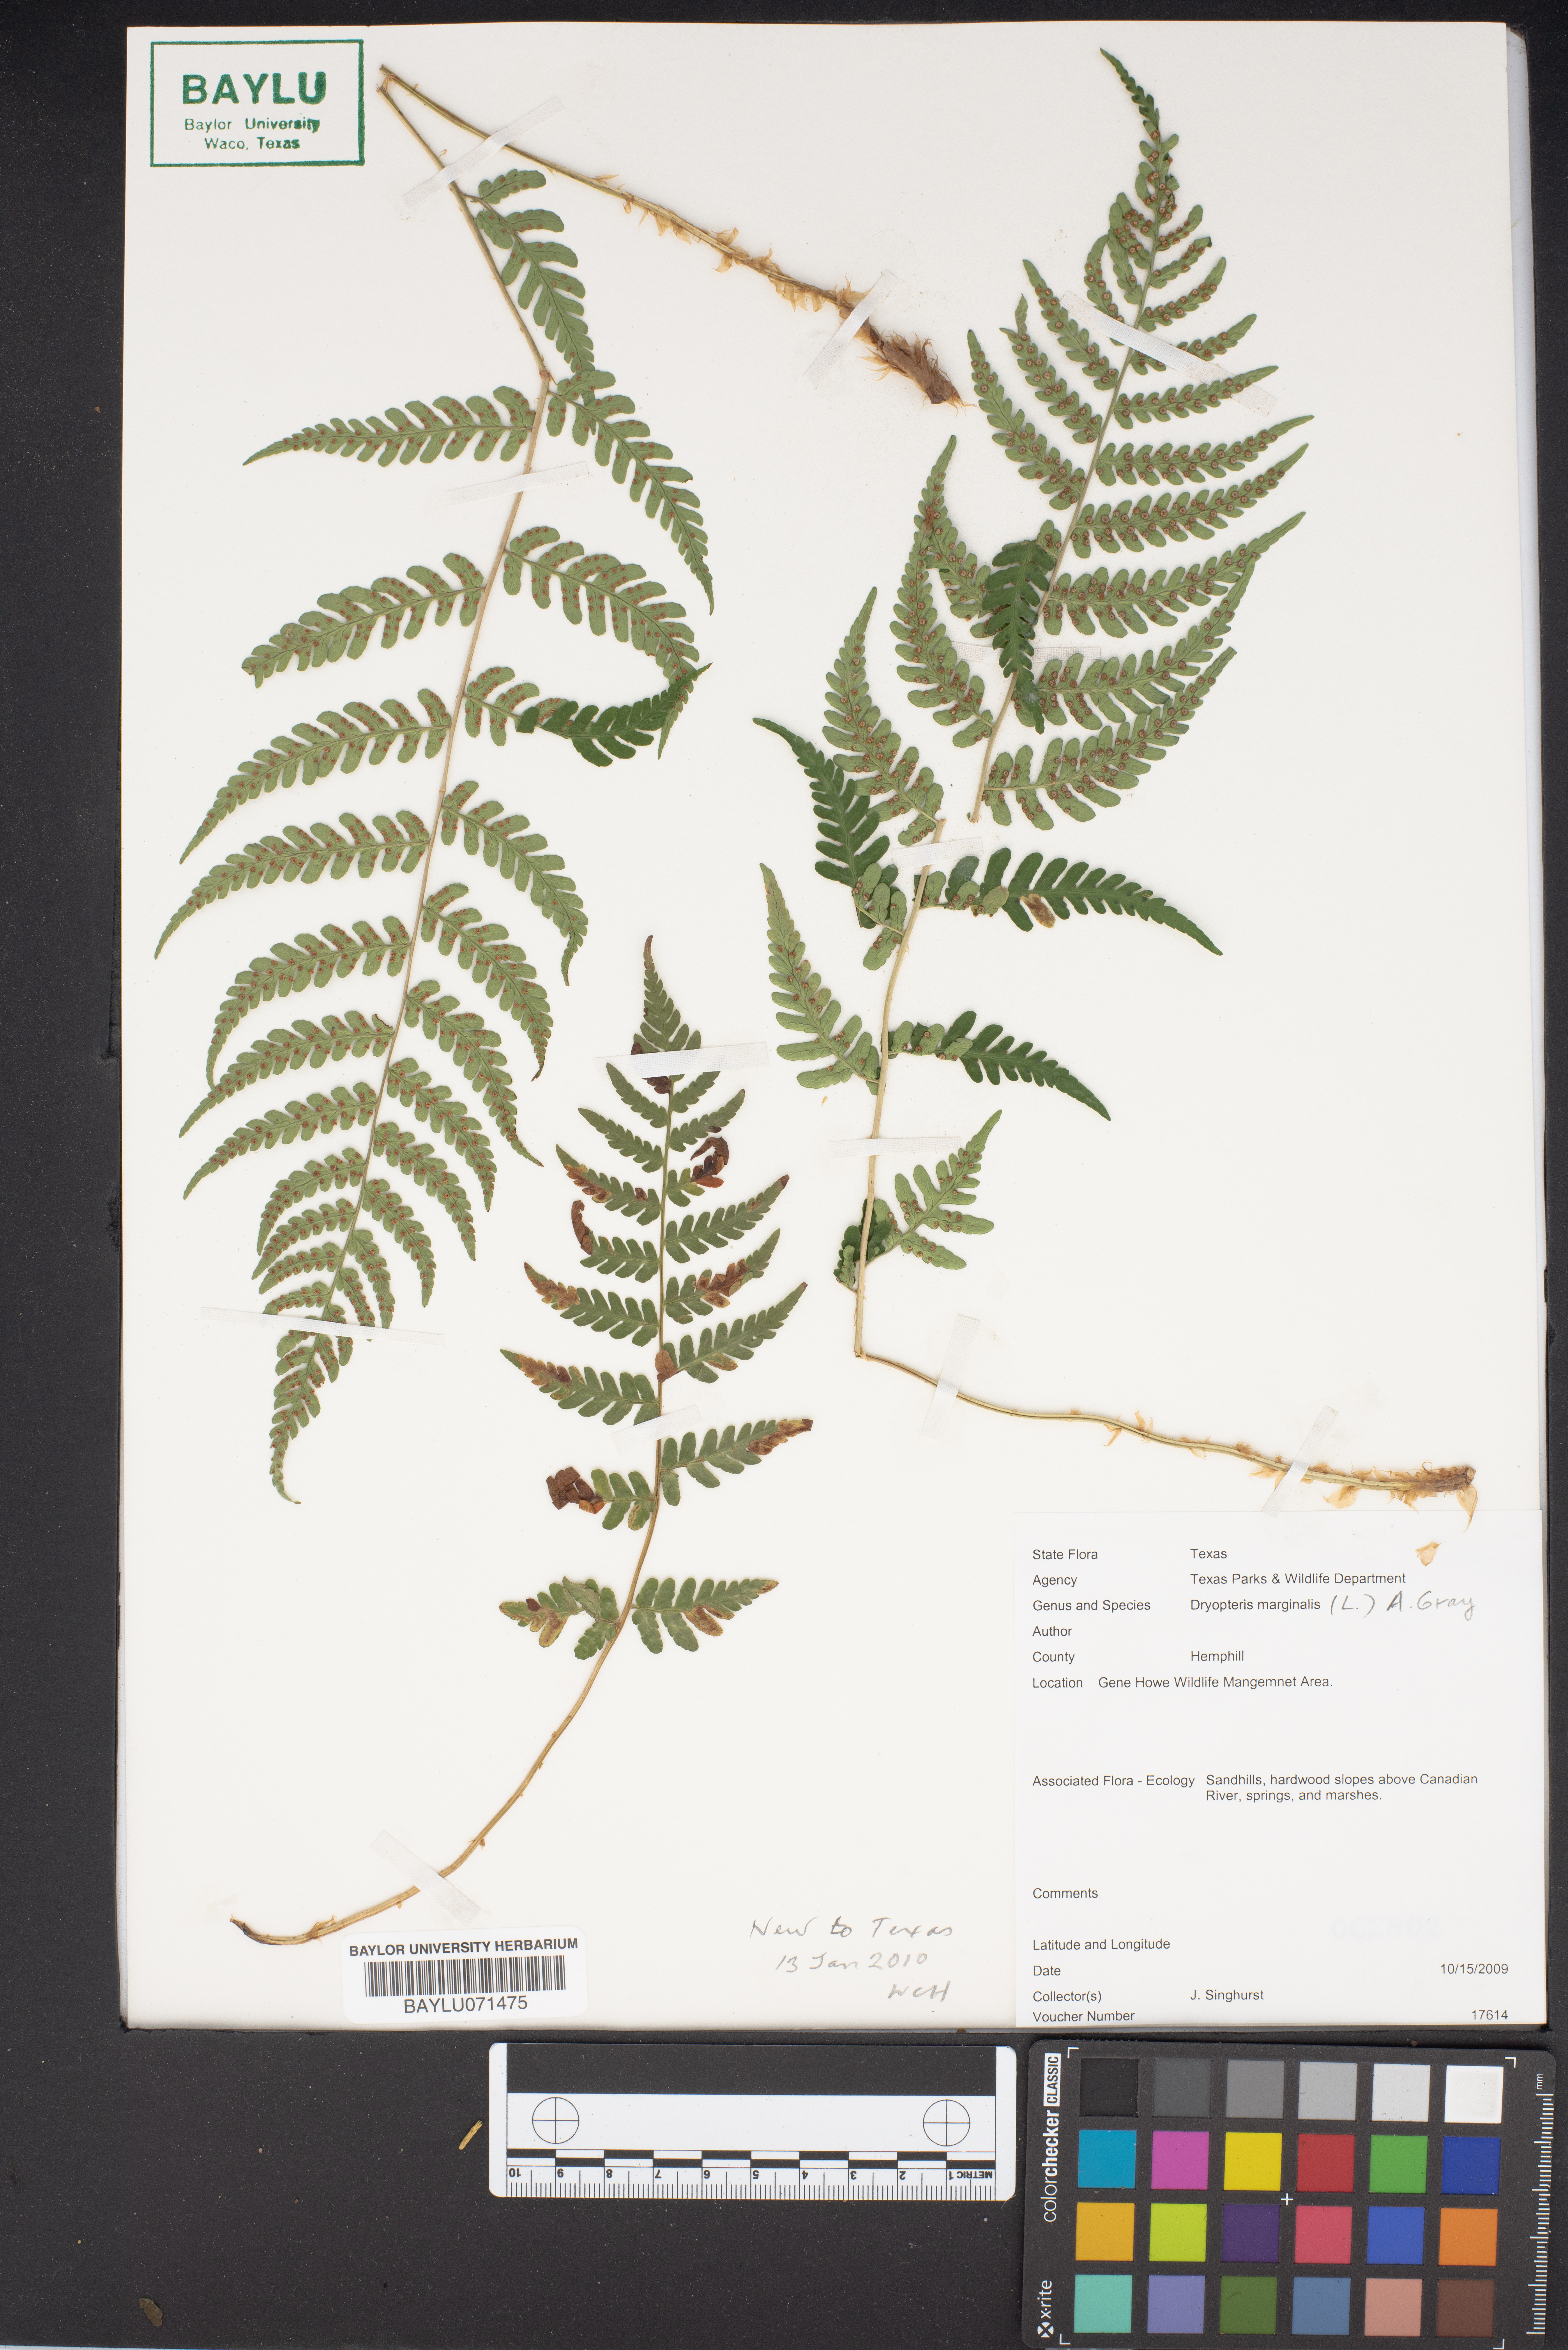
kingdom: Plantae
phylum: Tracheophyta
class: Polypodiopsida
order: Polypodiales
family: Dryopteridaceae
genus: Dryopteris
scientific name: Dryopteris marginalis
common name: Marginal wood fern
